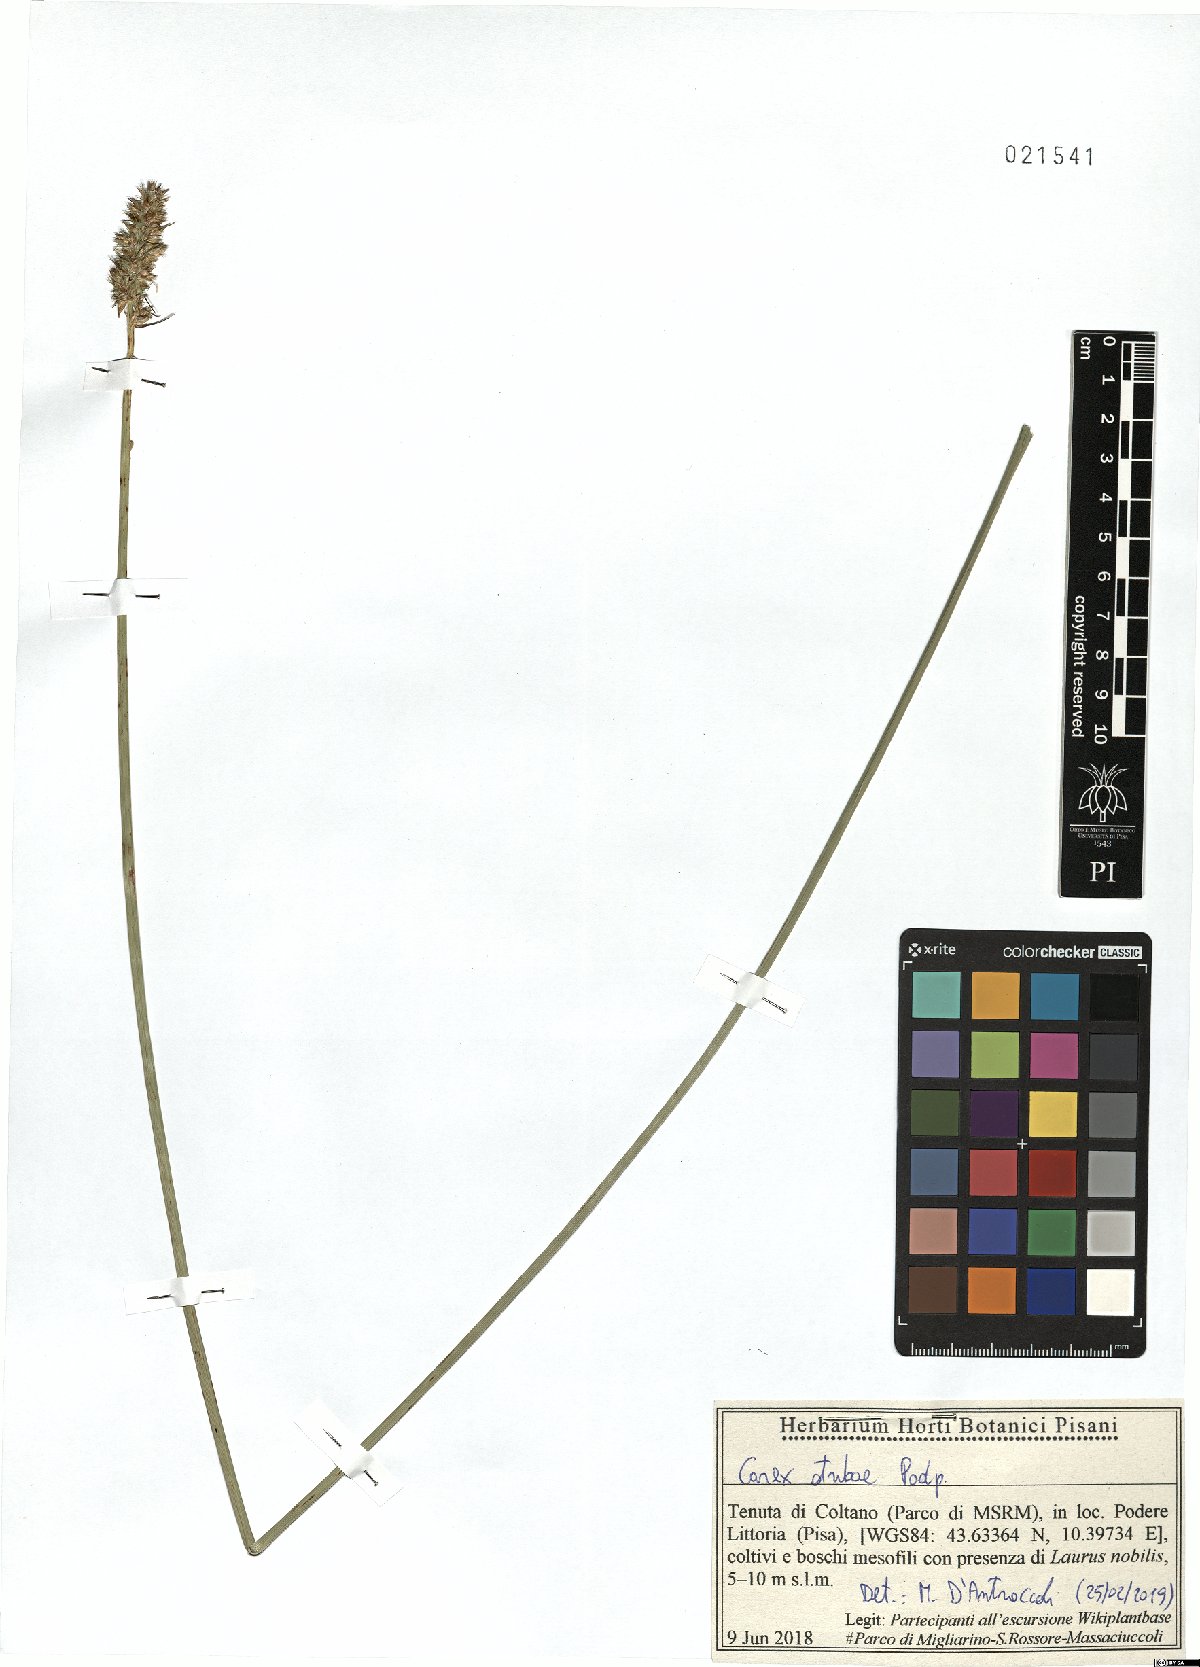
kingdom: Plantae
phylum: Tracheophyta
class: Liliopsida
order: Poales
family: Cyperaceae
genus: Carex
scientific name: Carex otrubae
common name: False fox-sedge
